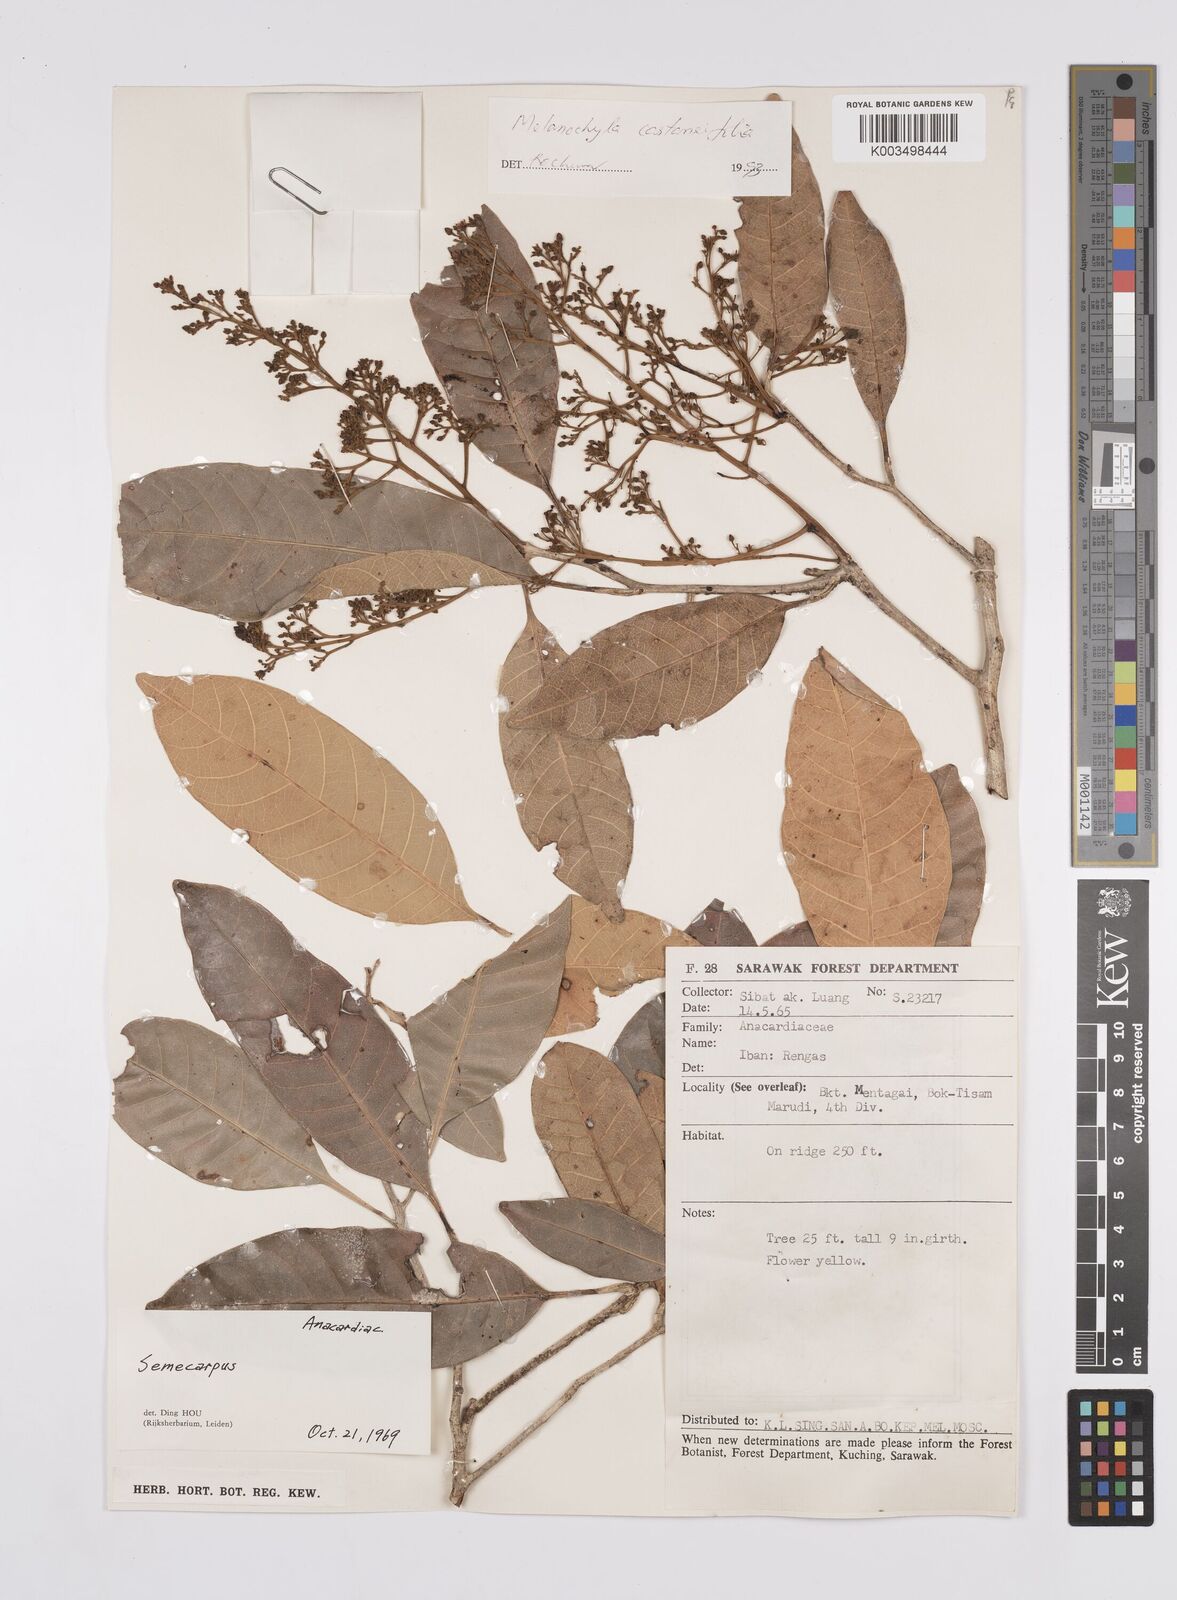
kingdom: Plantae
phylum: Tracheophyta
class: Magnoliopsida
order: Sapindales
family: Anacardiaceae
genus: Melanochyla
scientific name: Melanochyla castaneifolia
